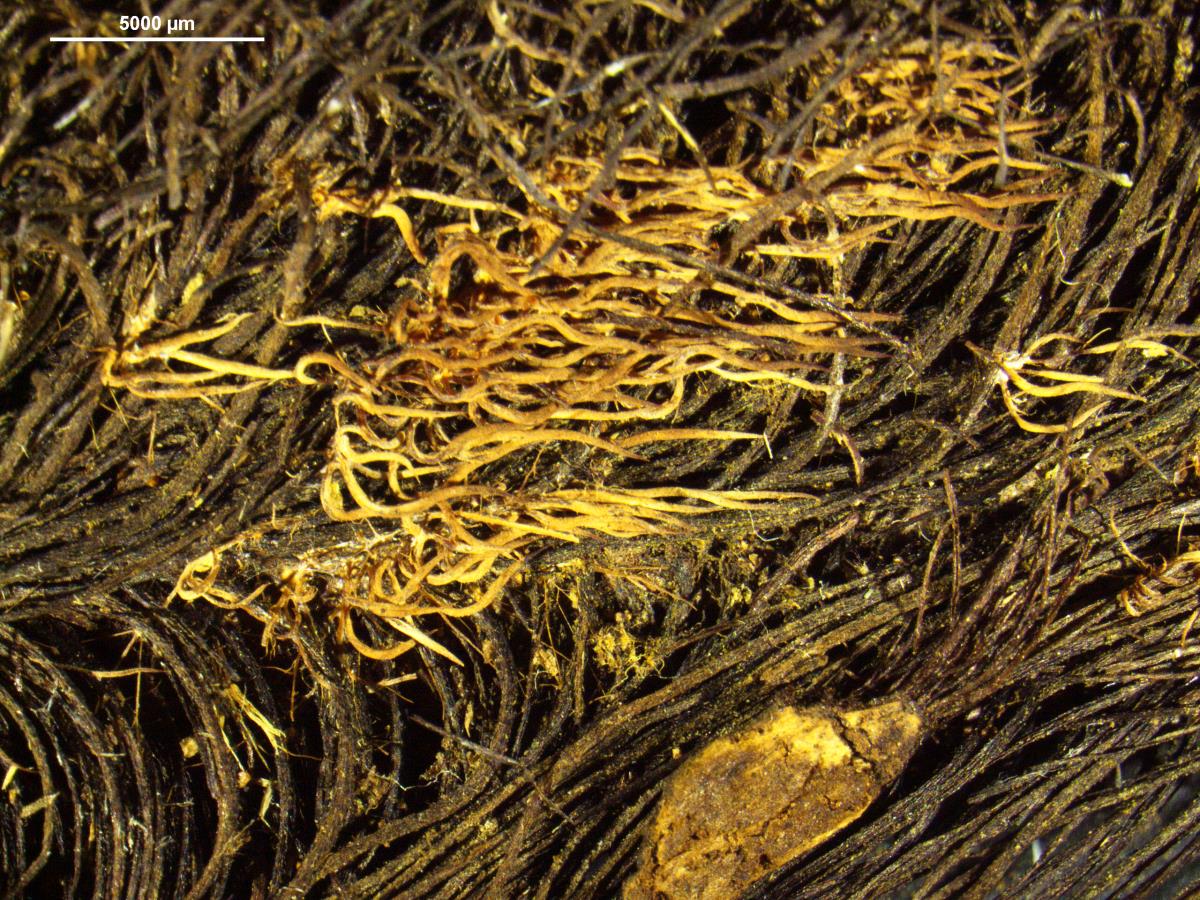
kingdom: Fungi
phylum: Basidiomycota
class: Agaricomycetes
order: Agaricales
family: Pterulaceae
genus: Deflexula
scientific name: Deflexula
